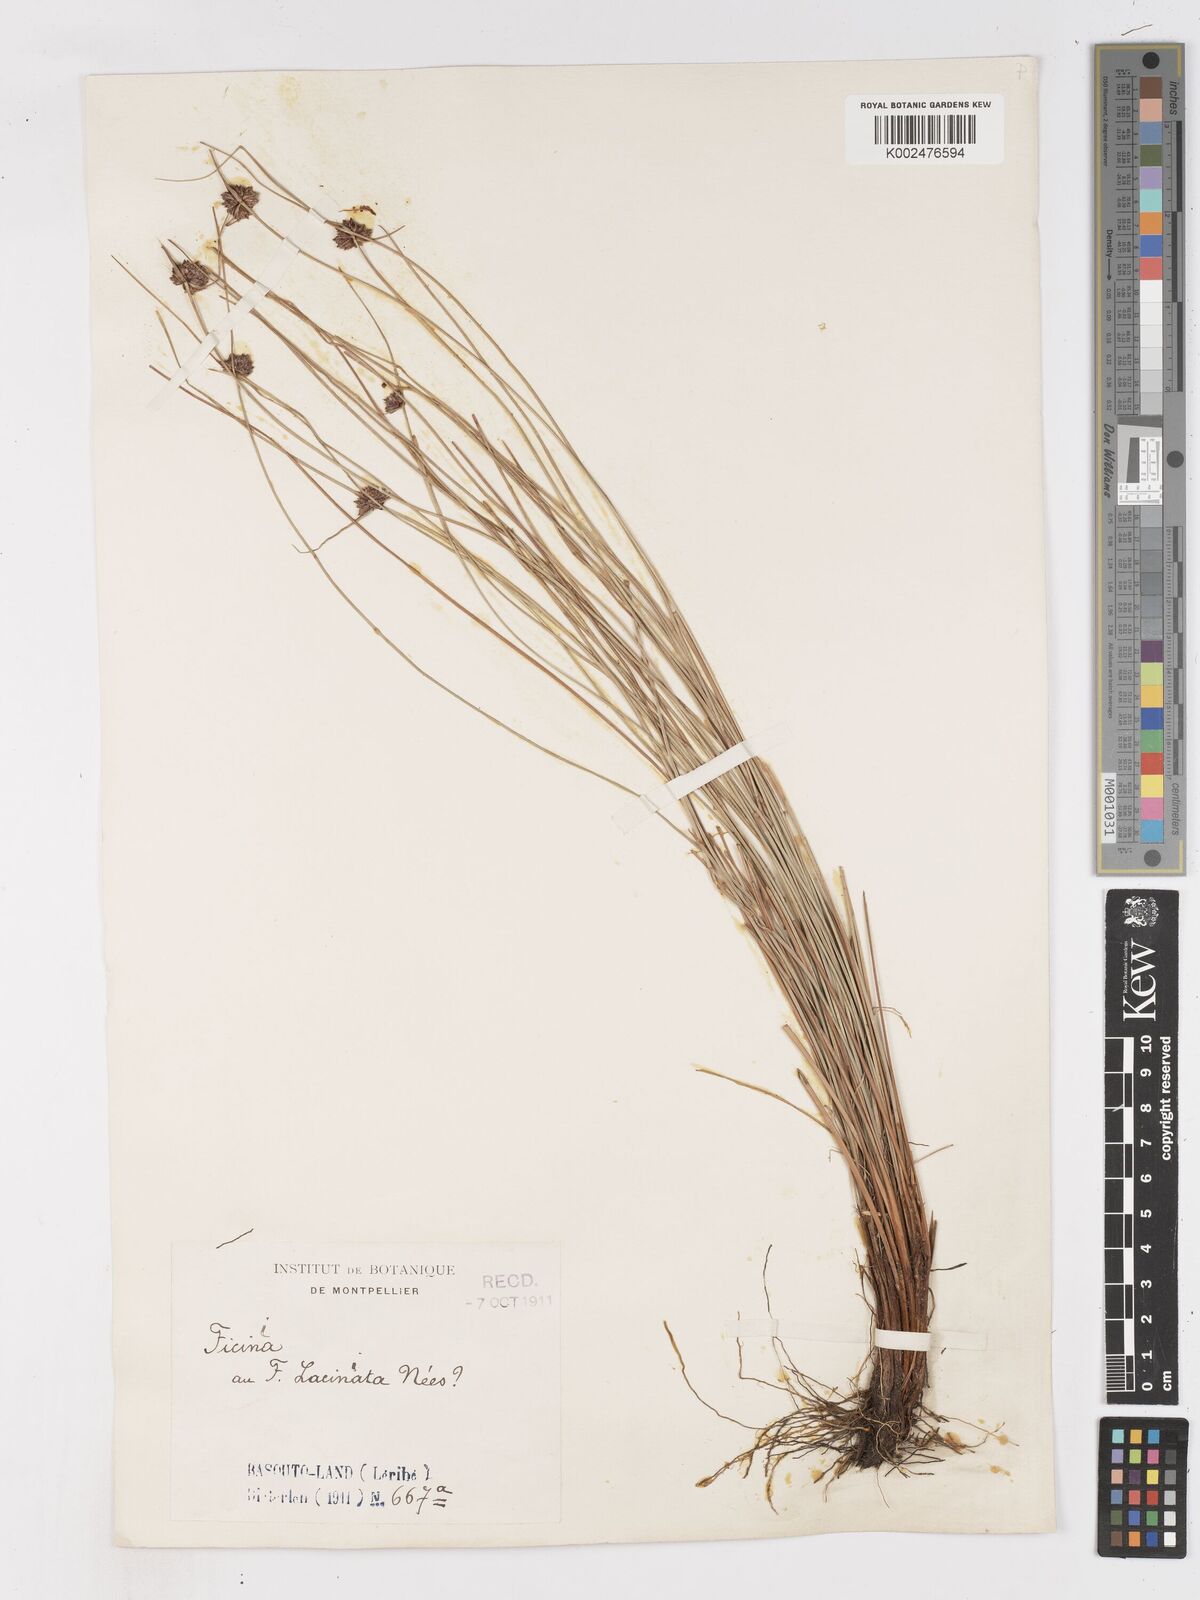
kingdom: Plantae
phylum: Tracheophyta
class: Liliopsida
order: Poales
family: Cyperaceae
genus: Ficinia
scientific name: Ficinia
